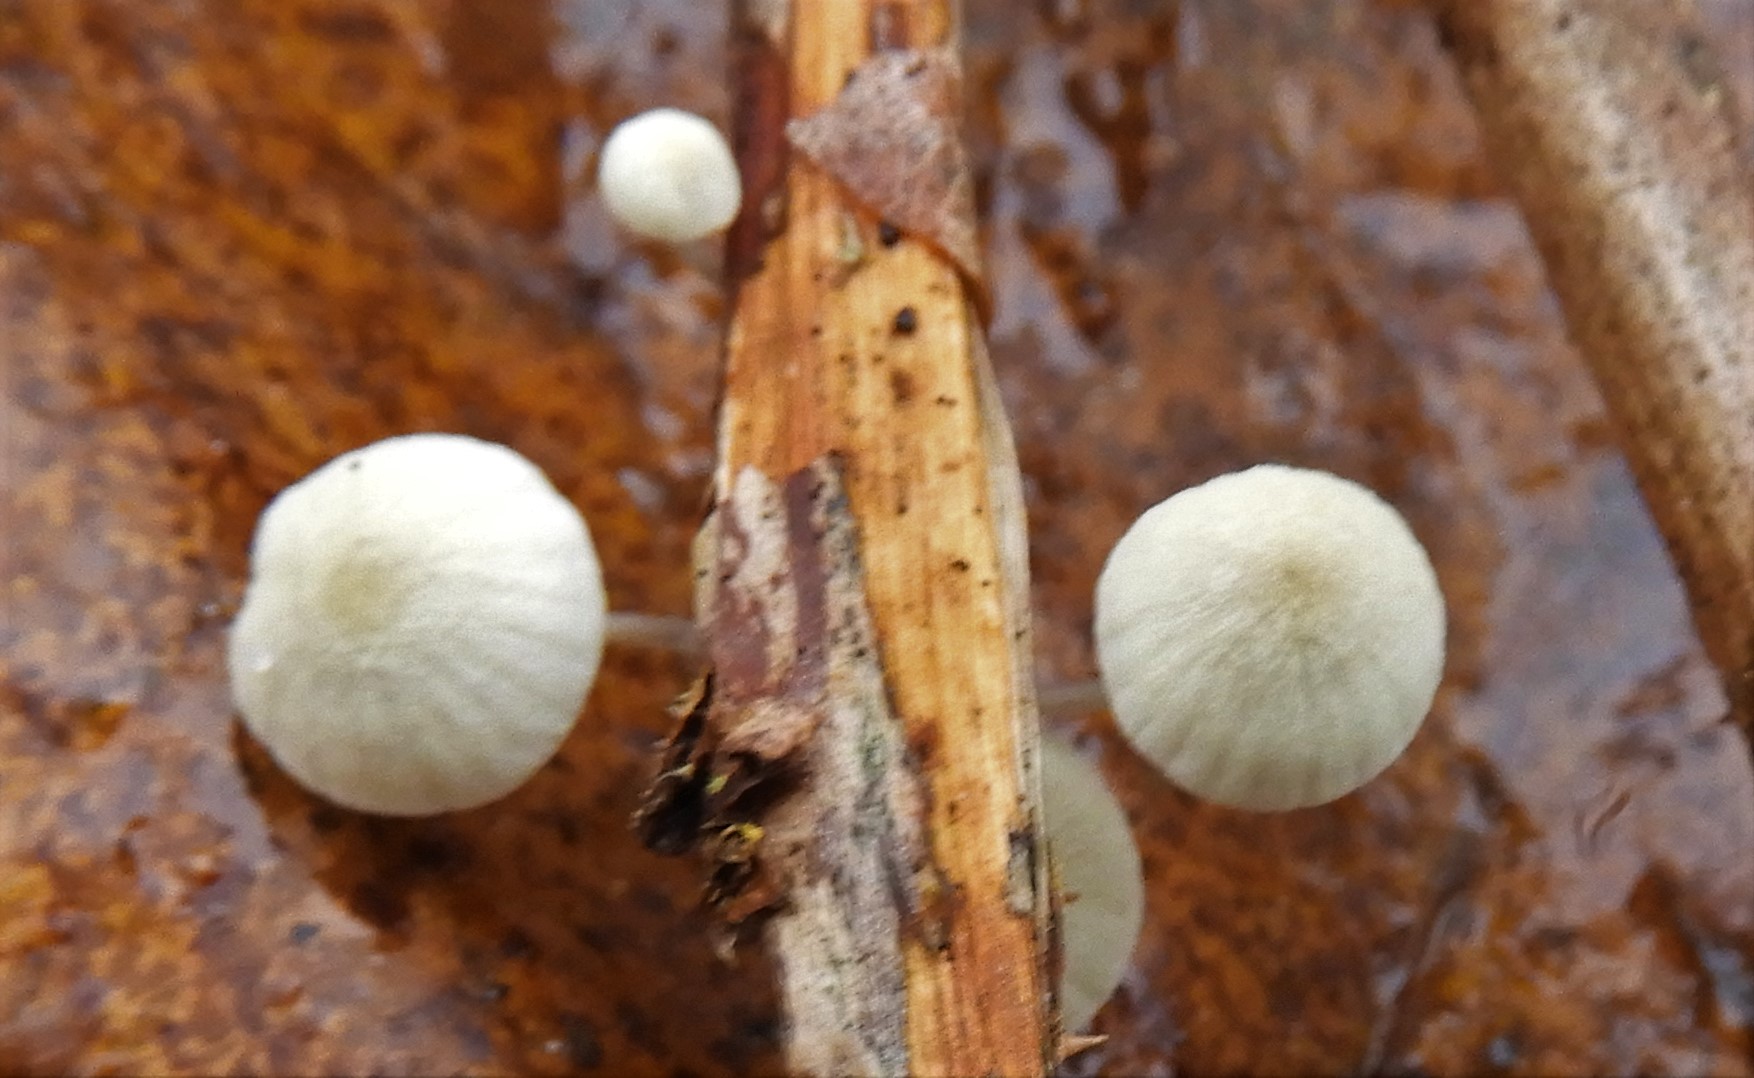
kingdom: Fungi
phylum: Basidiomycota
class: Agaricomycetes
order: Agaricales
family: Mycenaceae
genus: Mycena
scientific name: Mycena arcangeliana
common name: oliven-huesvamp
